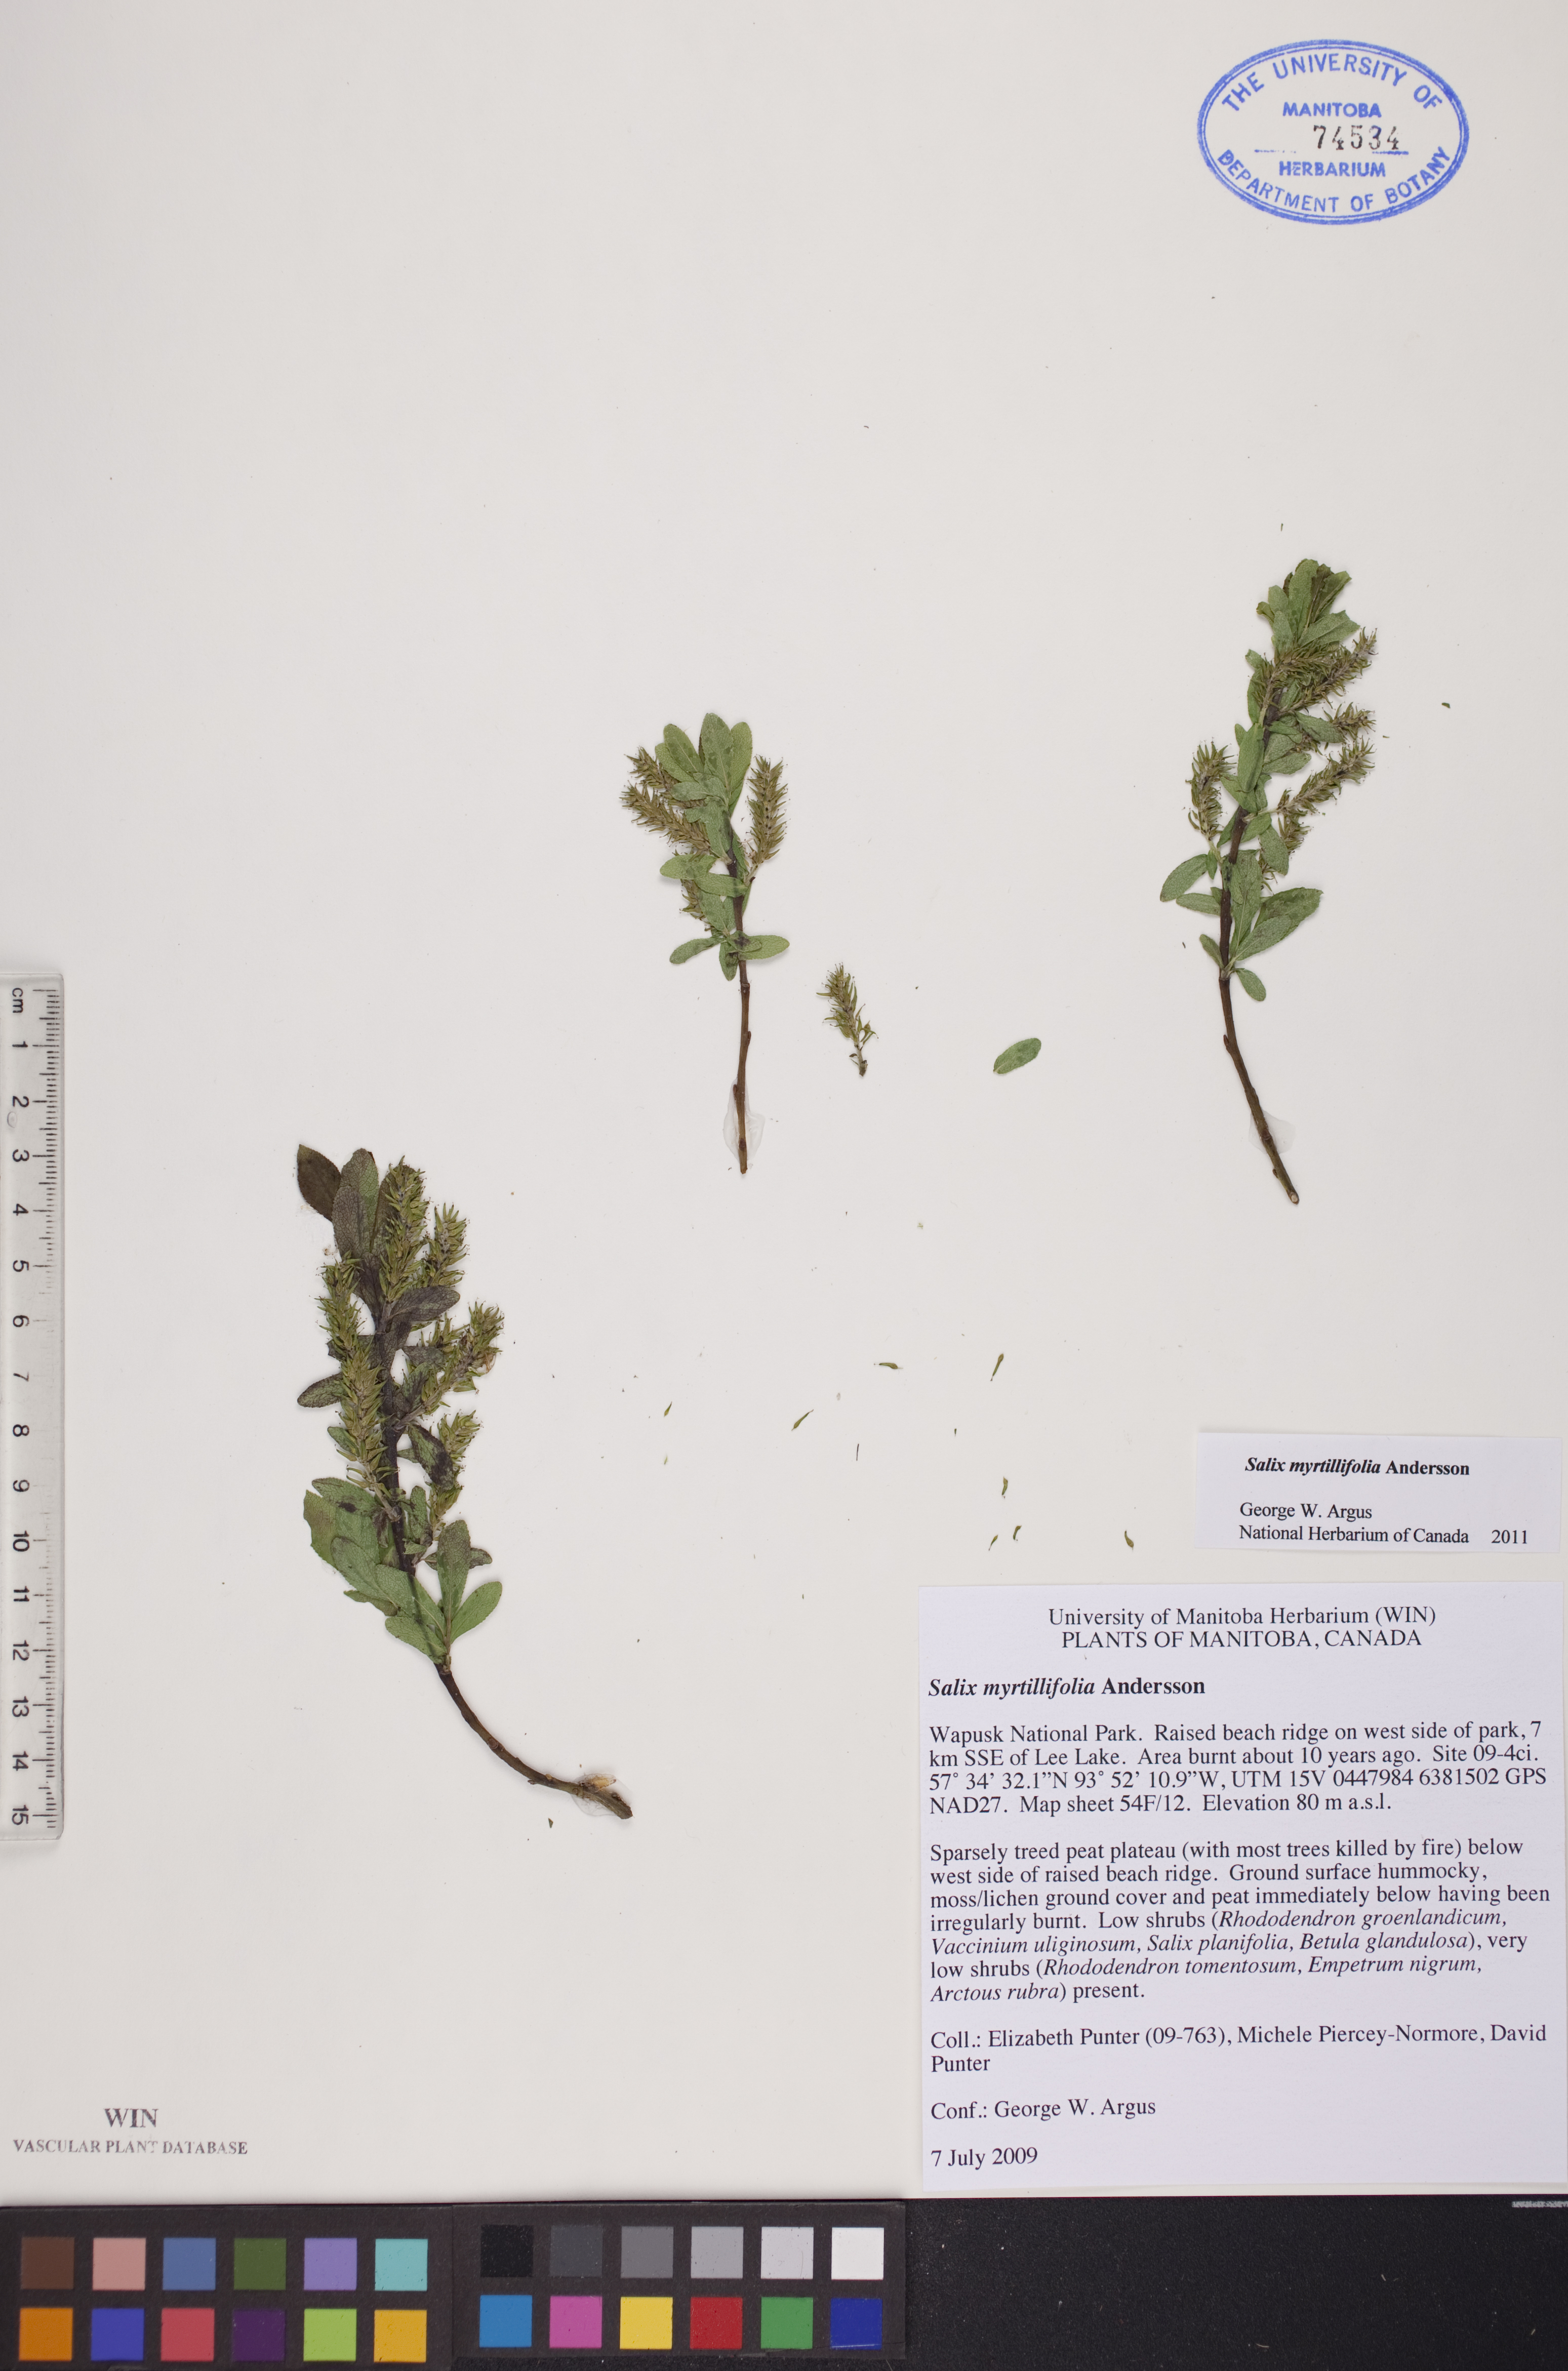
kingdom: Plantae
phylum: Tracheophyta
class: Magnoliopsida
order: Malpighiales
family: Salicaceae
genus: Salix
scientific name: Salix myrtillifolia
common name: Bilberry willow
